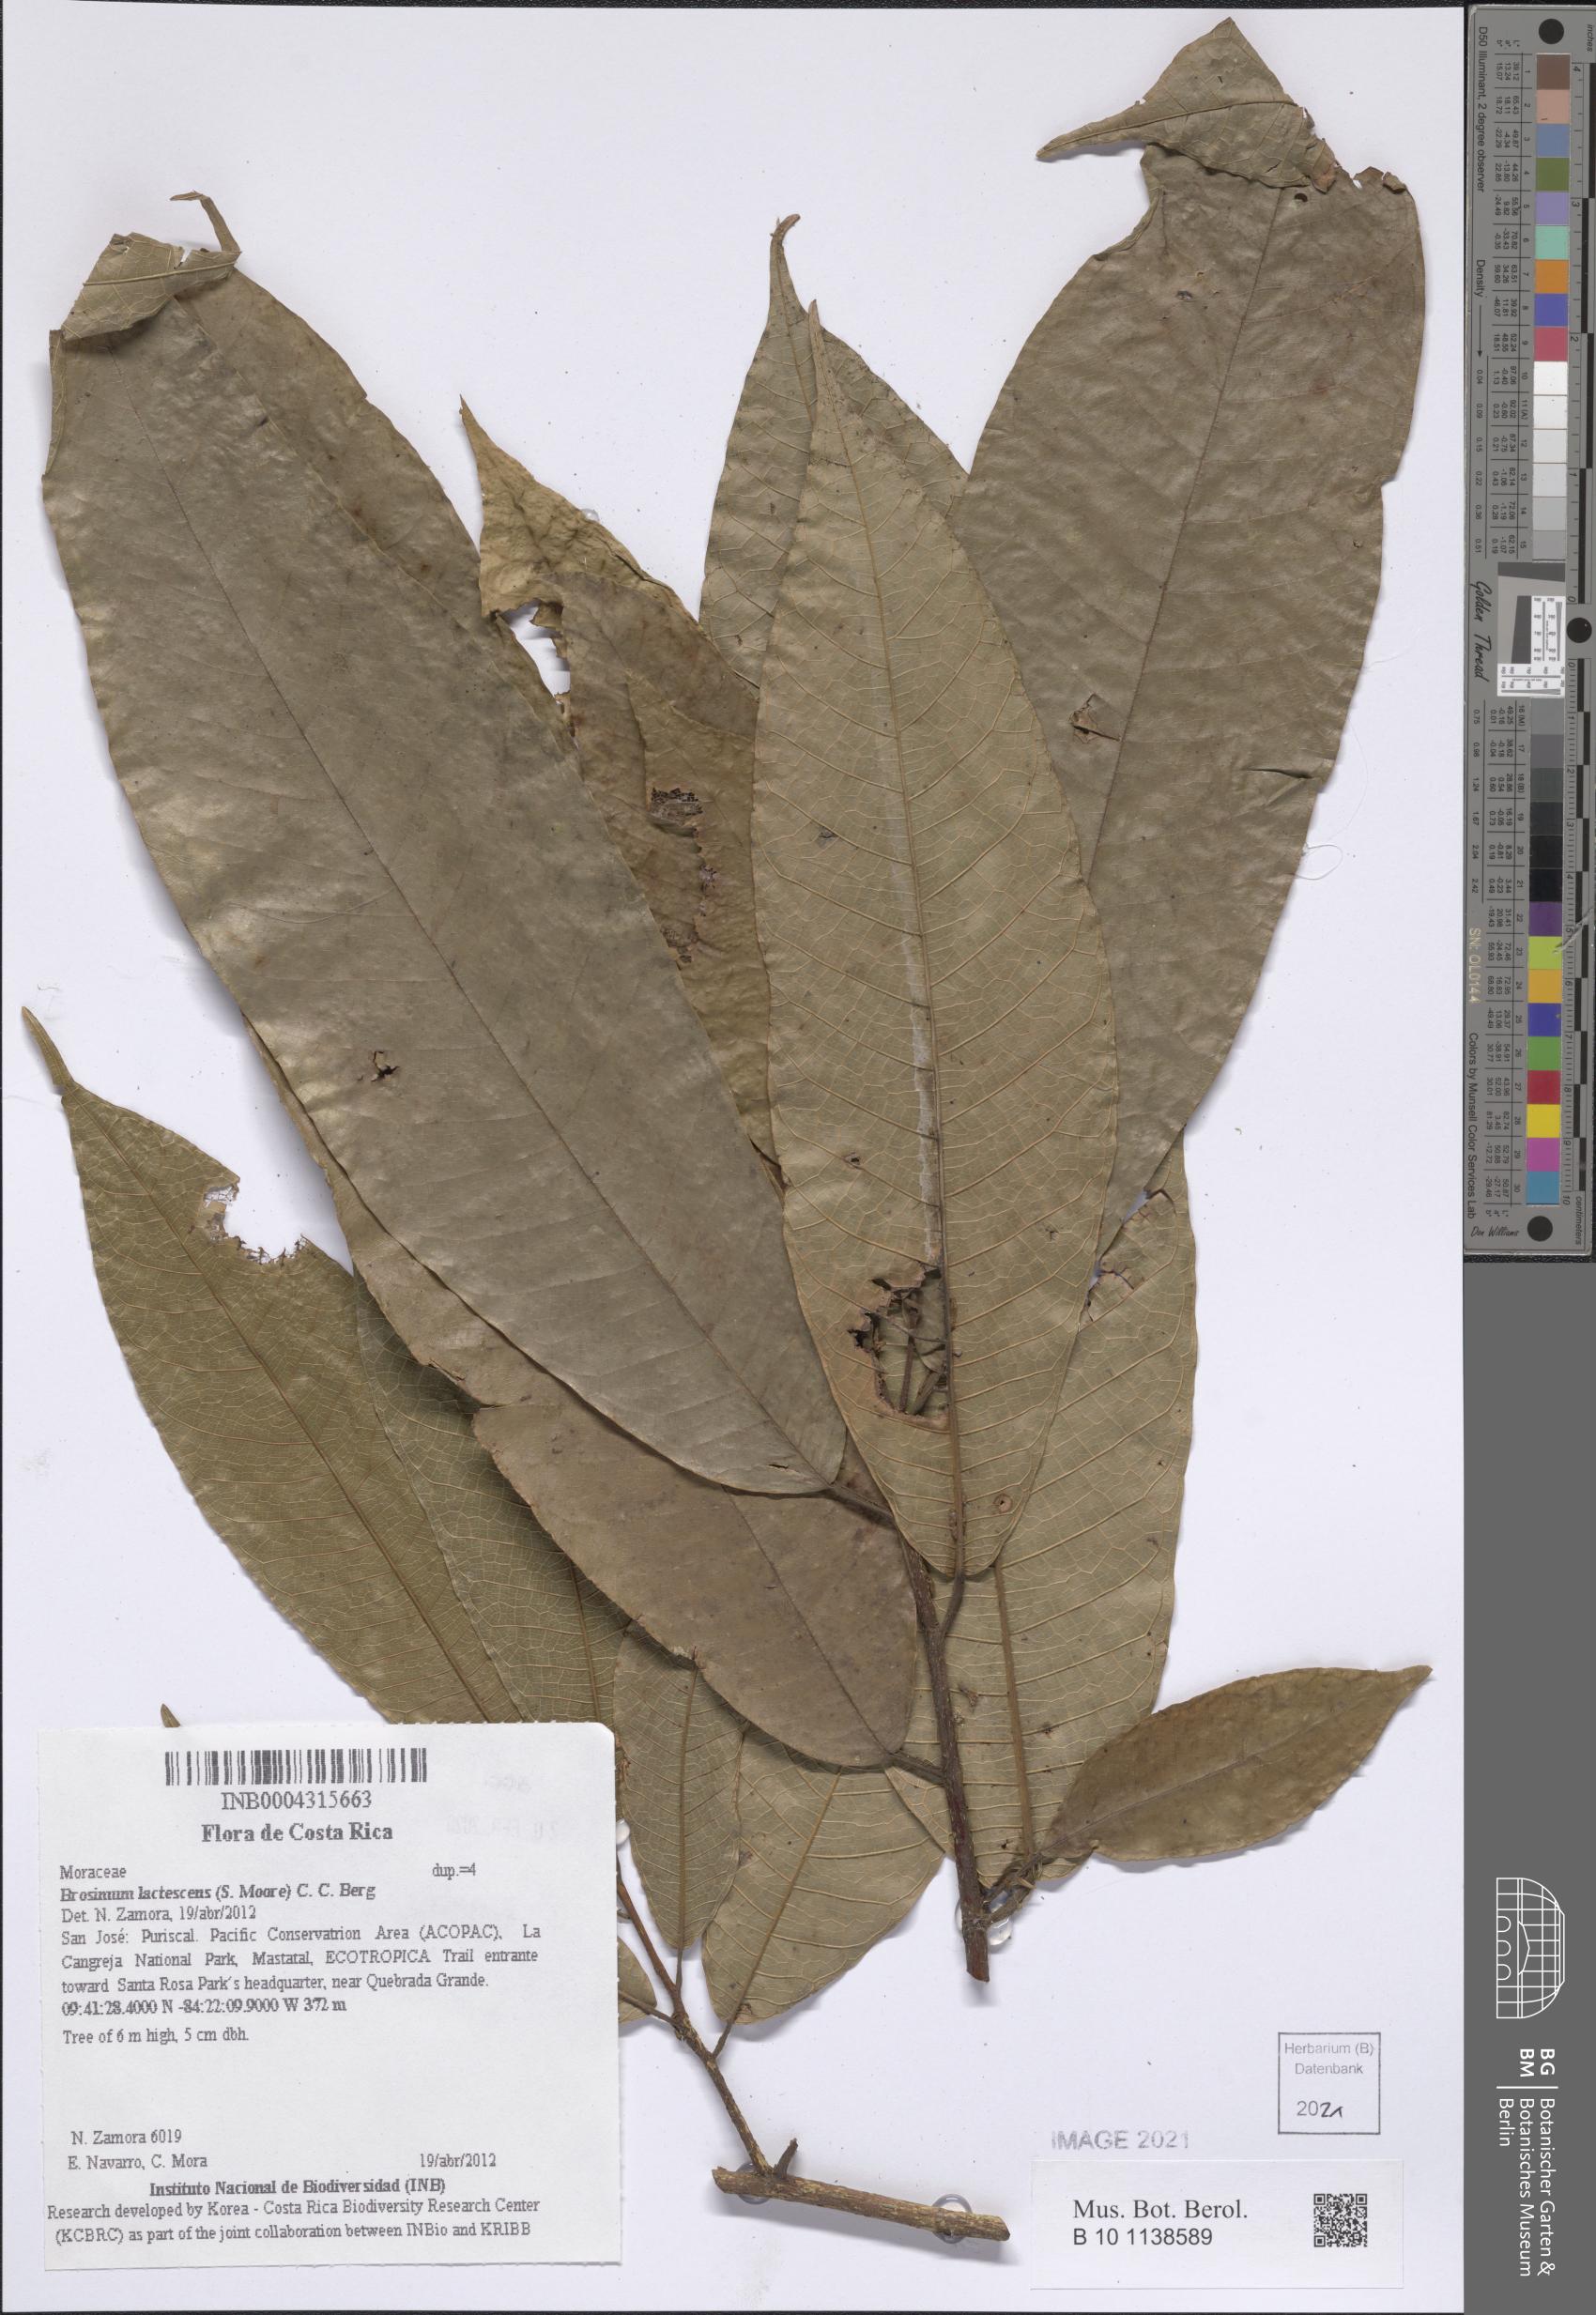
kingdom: Plantae
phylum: Tracheophyta
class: Magnoliopsida
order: Rosales
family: Moraceae
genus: Brosimum
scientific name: Brosimum lactescens
